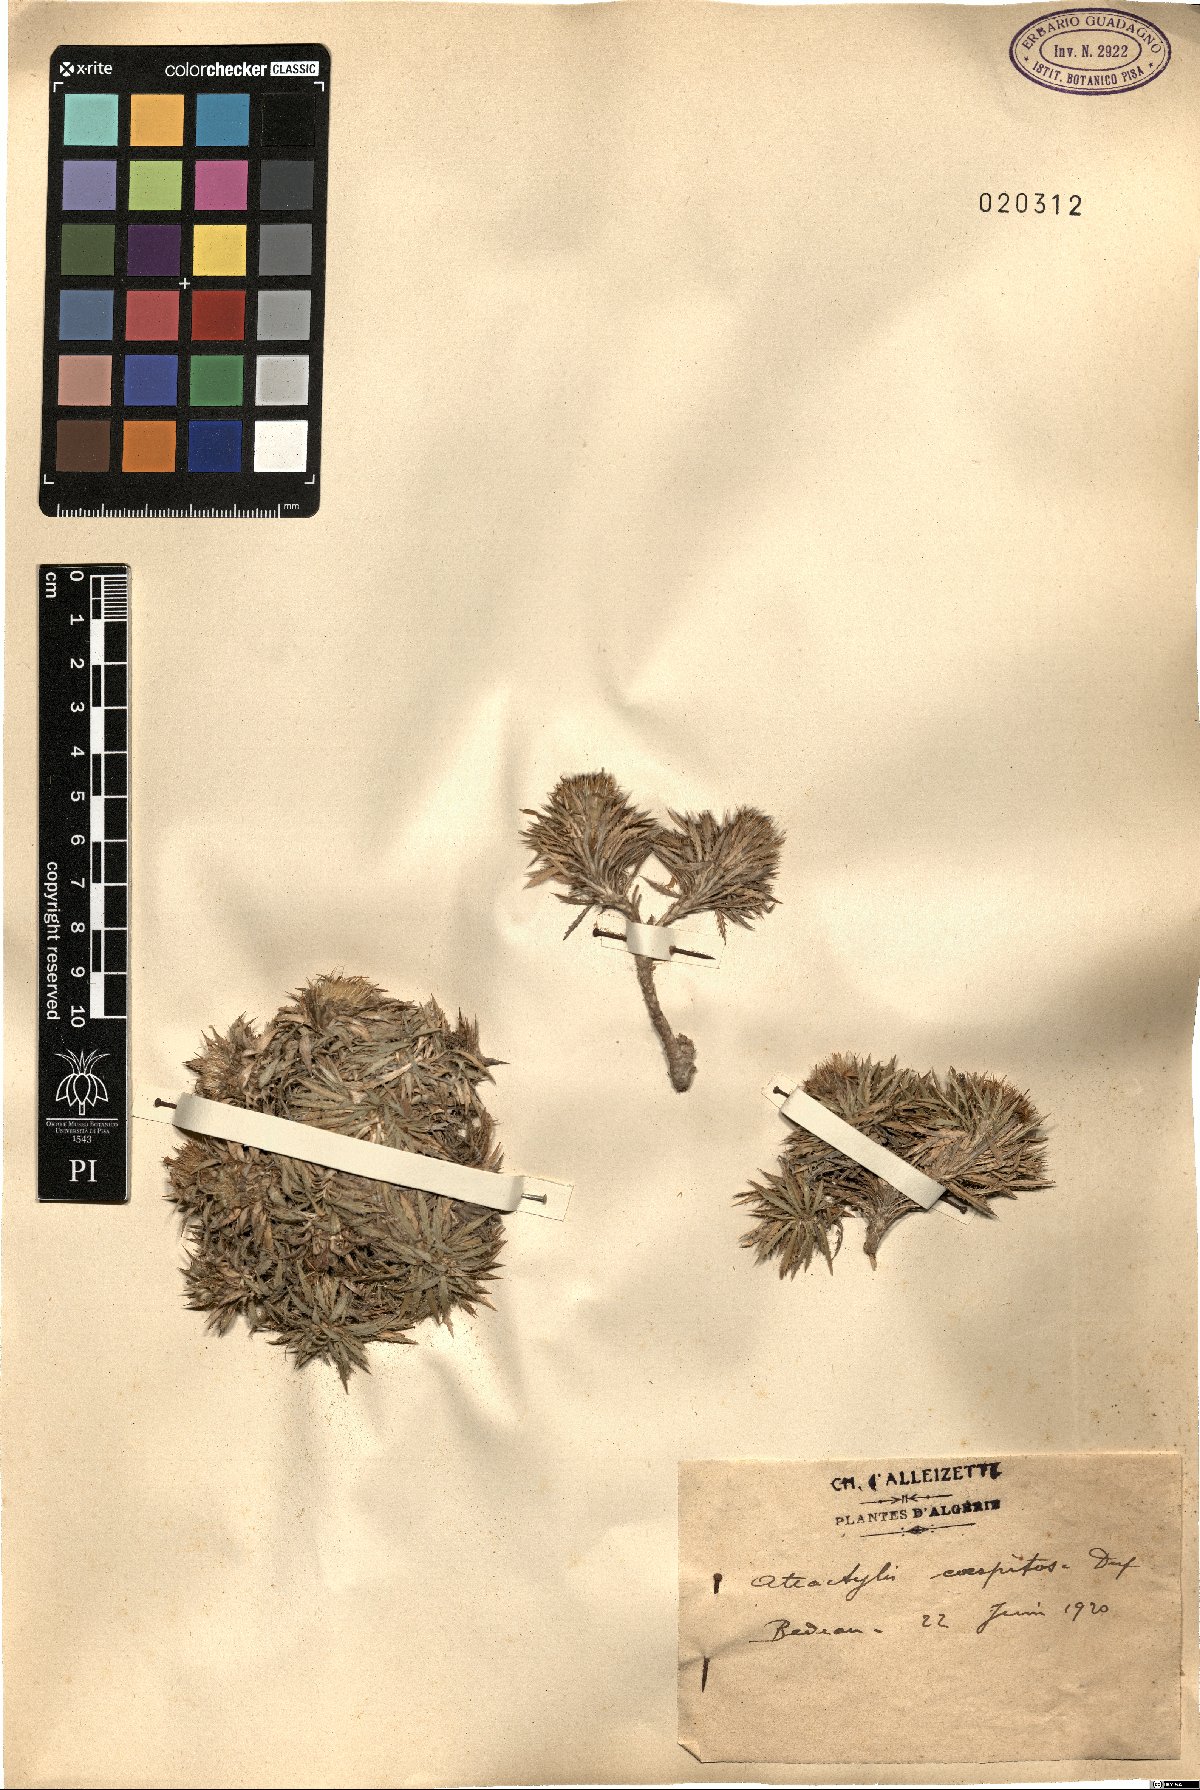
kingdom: Plantae
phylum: Tracheophyta
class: Magnoliopsida
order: Asterales
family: Asteraceae
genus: Atractylis
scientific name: Atractylis caespitosa
